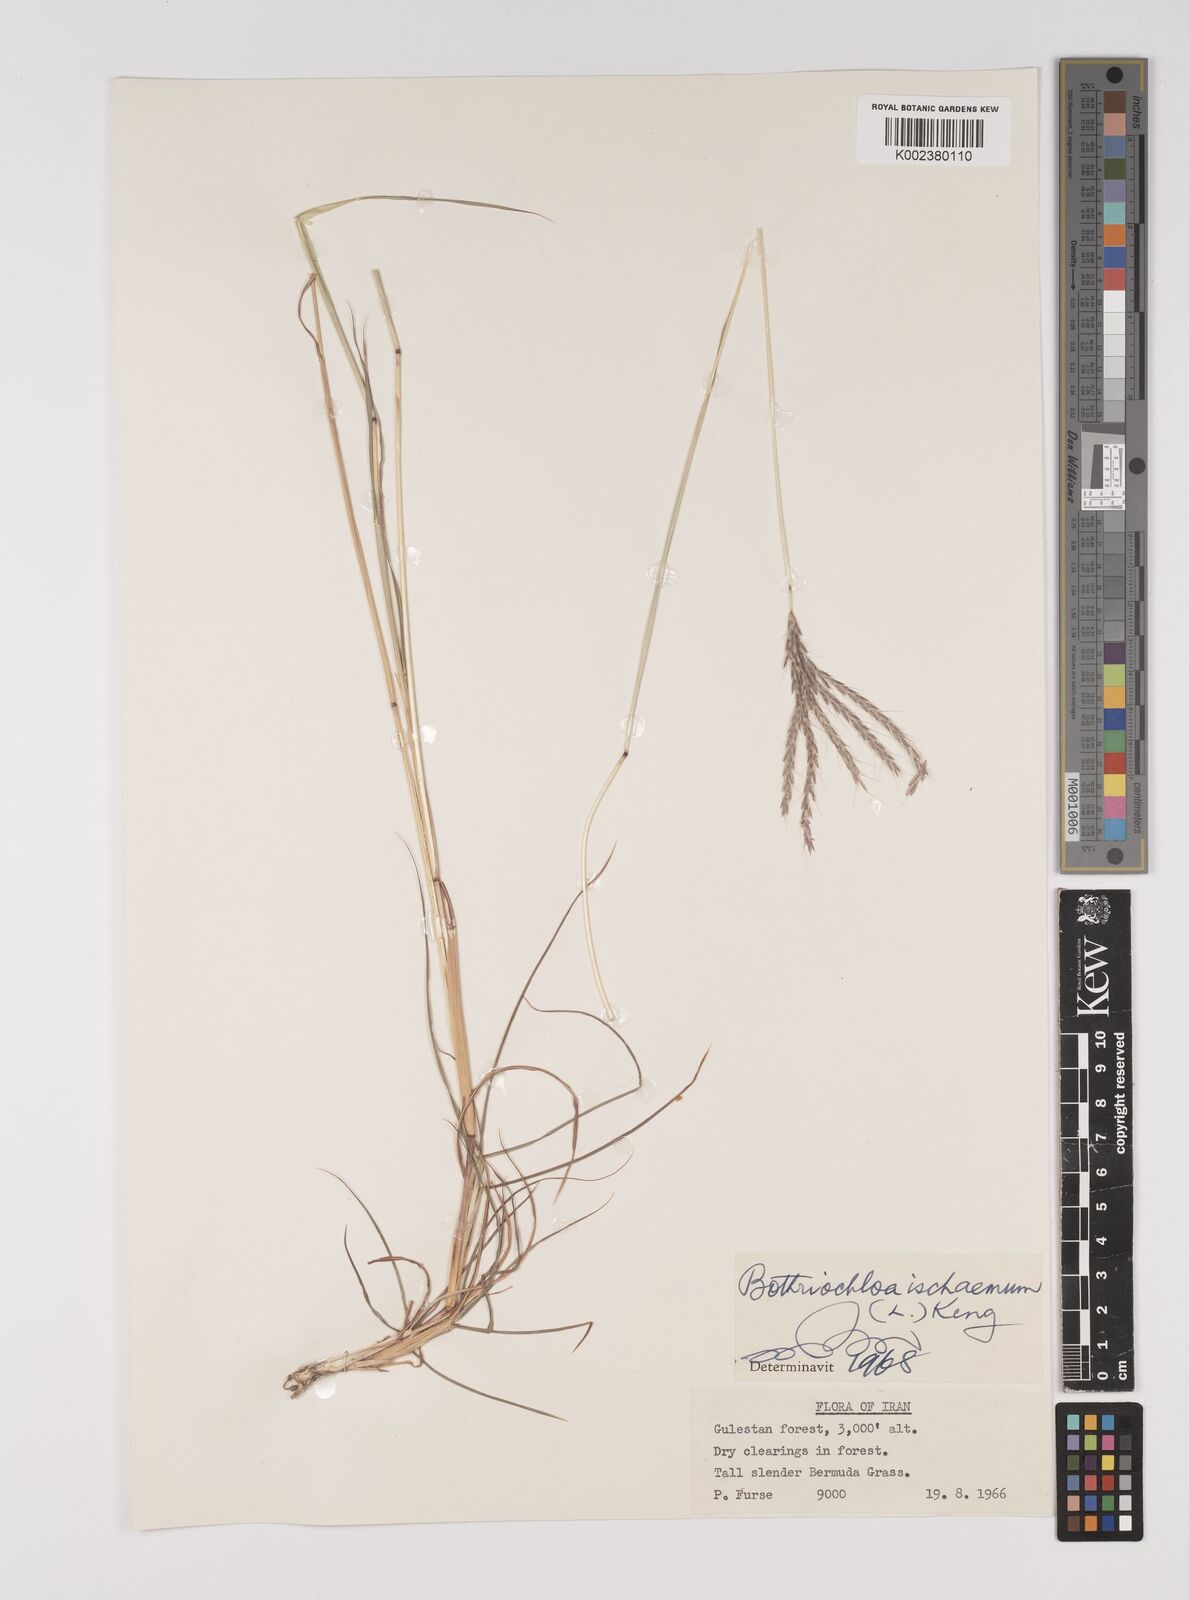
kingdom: Plantae
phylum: Tracheophyta
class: Liliopsida
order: Poales
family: Poaceae
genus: Bothriochloa
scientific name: Bothriochloa ischaemum
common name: Yellow bluestem
